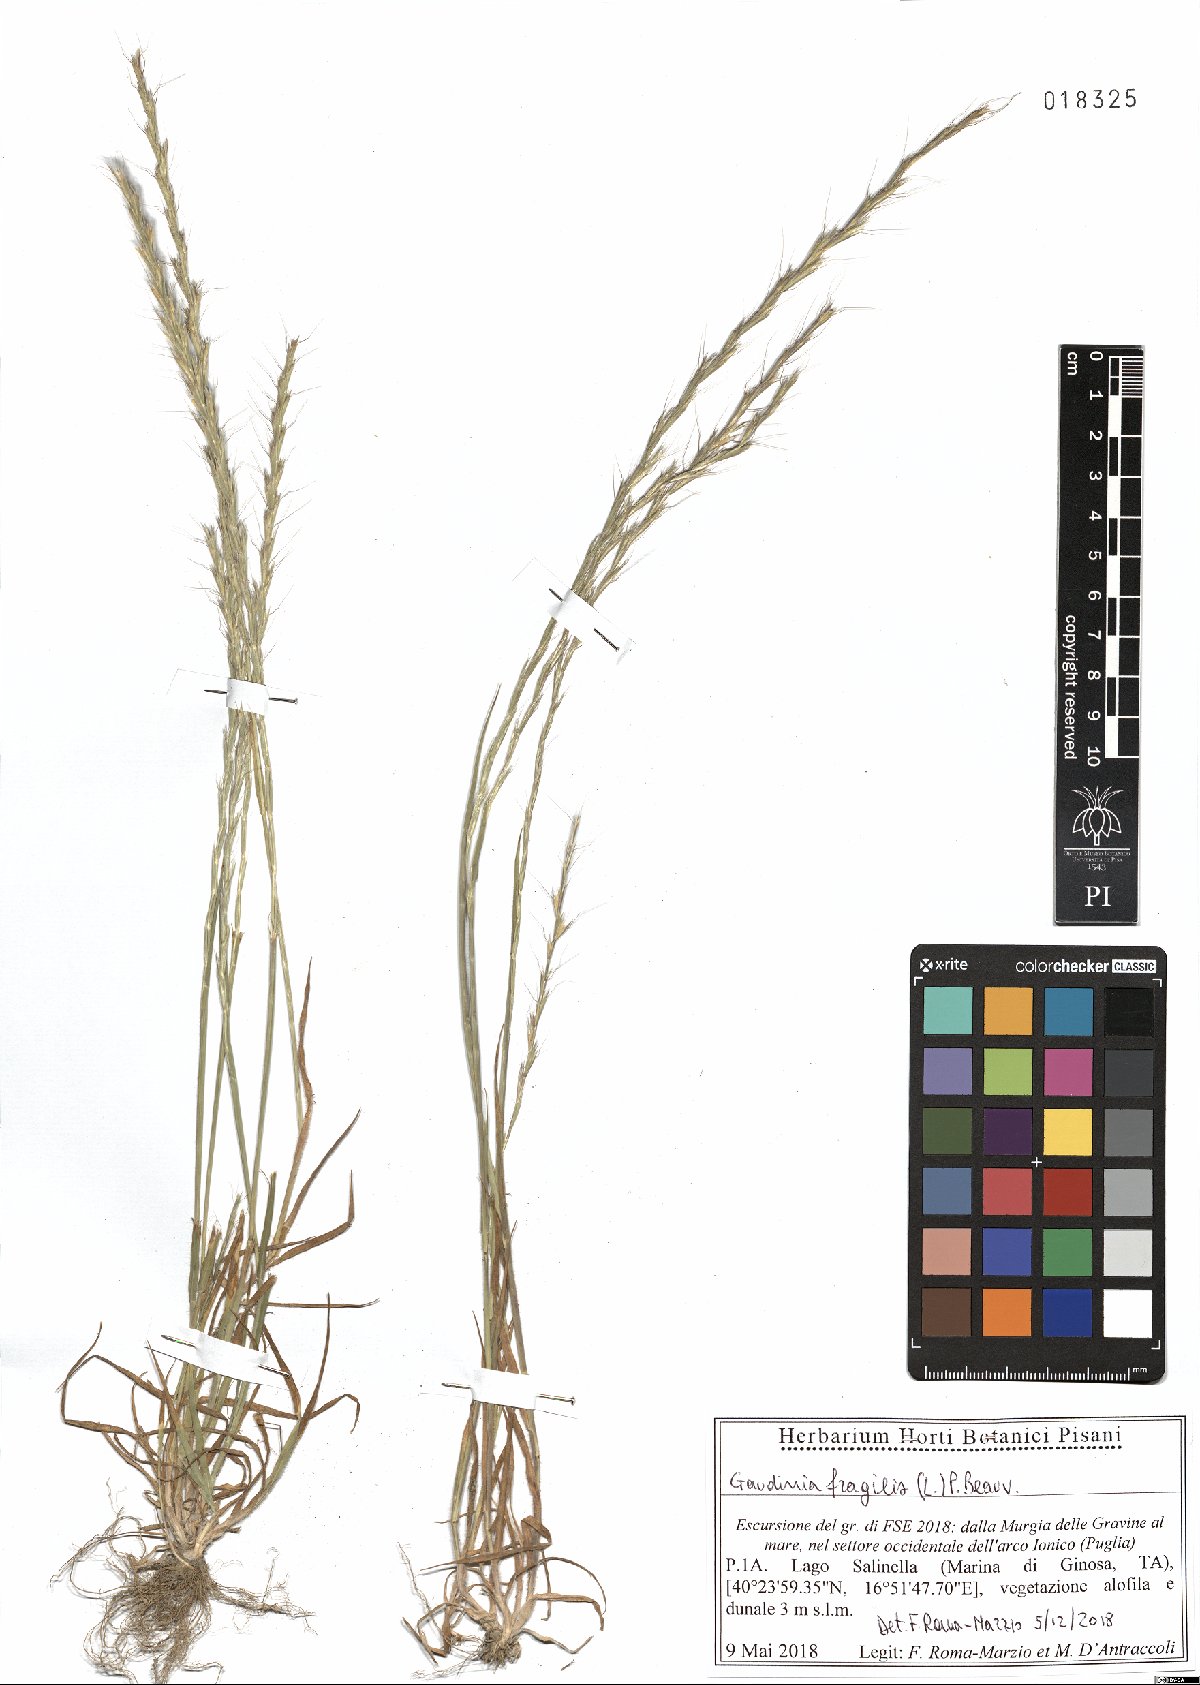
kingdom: Plantae
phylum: Tracheophyta
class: Liliopsida
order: Poales
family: Poaceae
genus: Gaudinia
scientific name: Gaudinia fragilis
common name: French oat-grass
